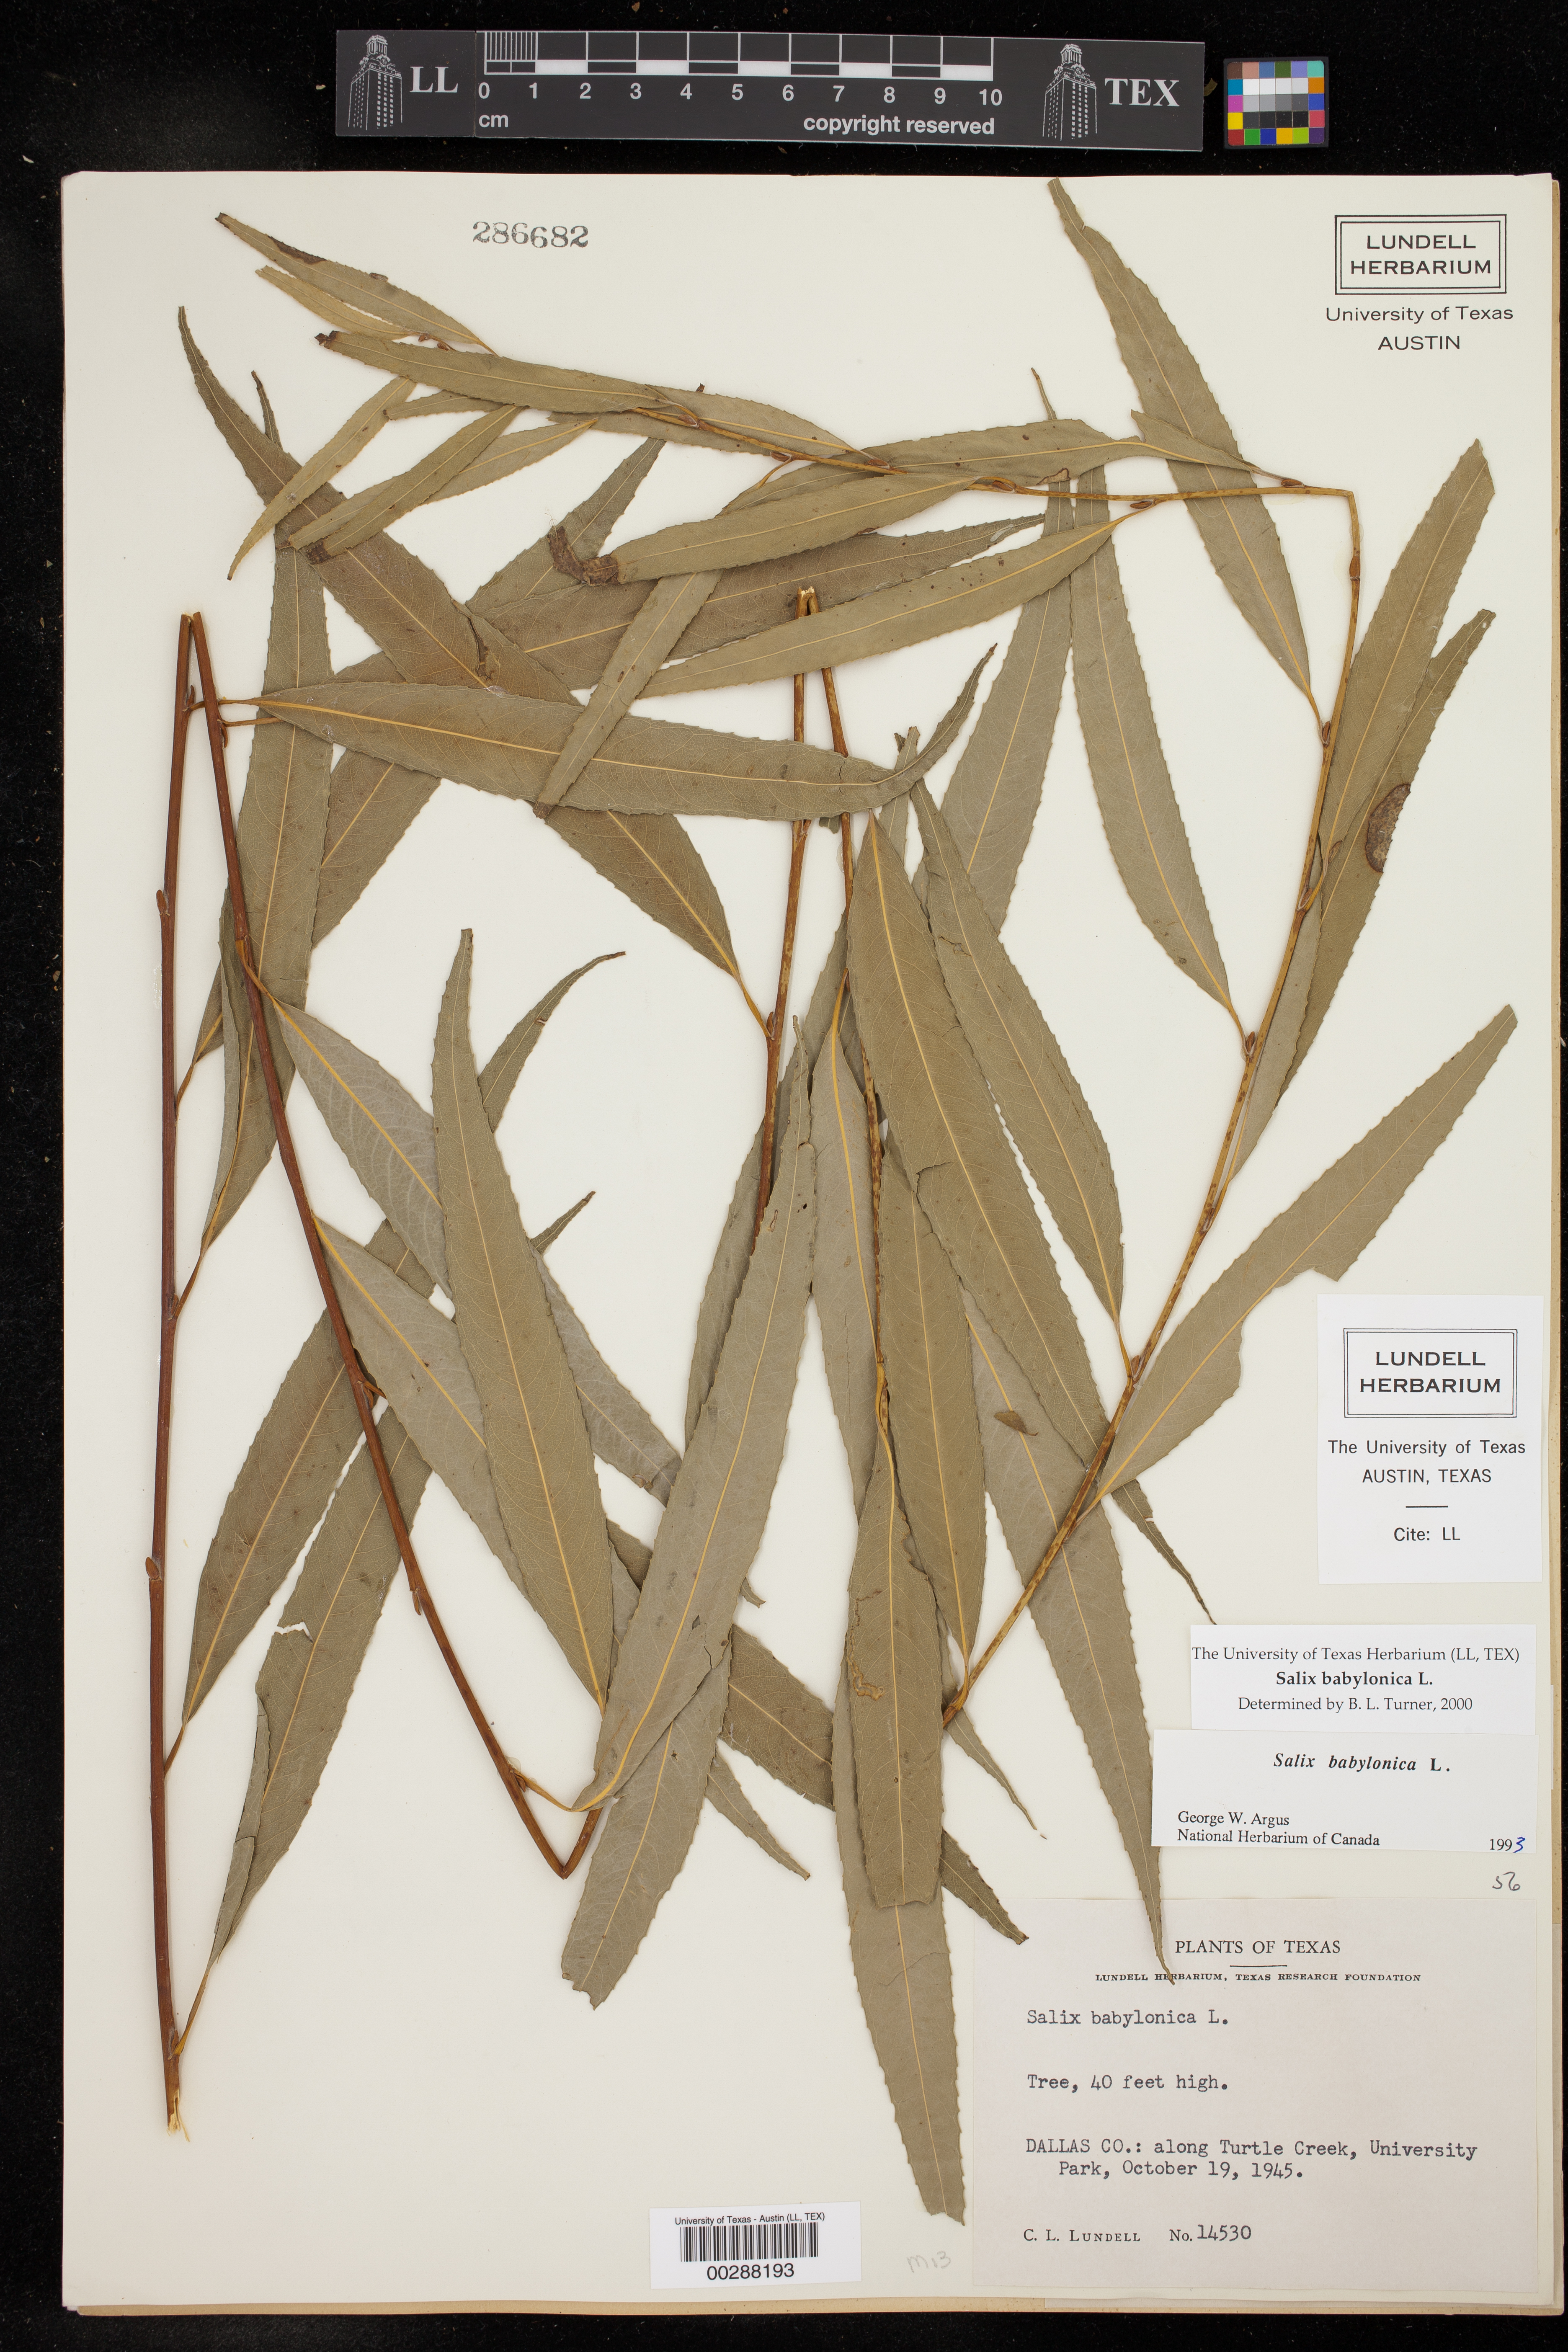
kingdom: Plantae
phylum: Tracheophyta
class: Magnoliopsida
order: Malpighiales
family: Salicaceae
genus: Salix
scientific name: Salix babylonica
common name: Weeping willow
